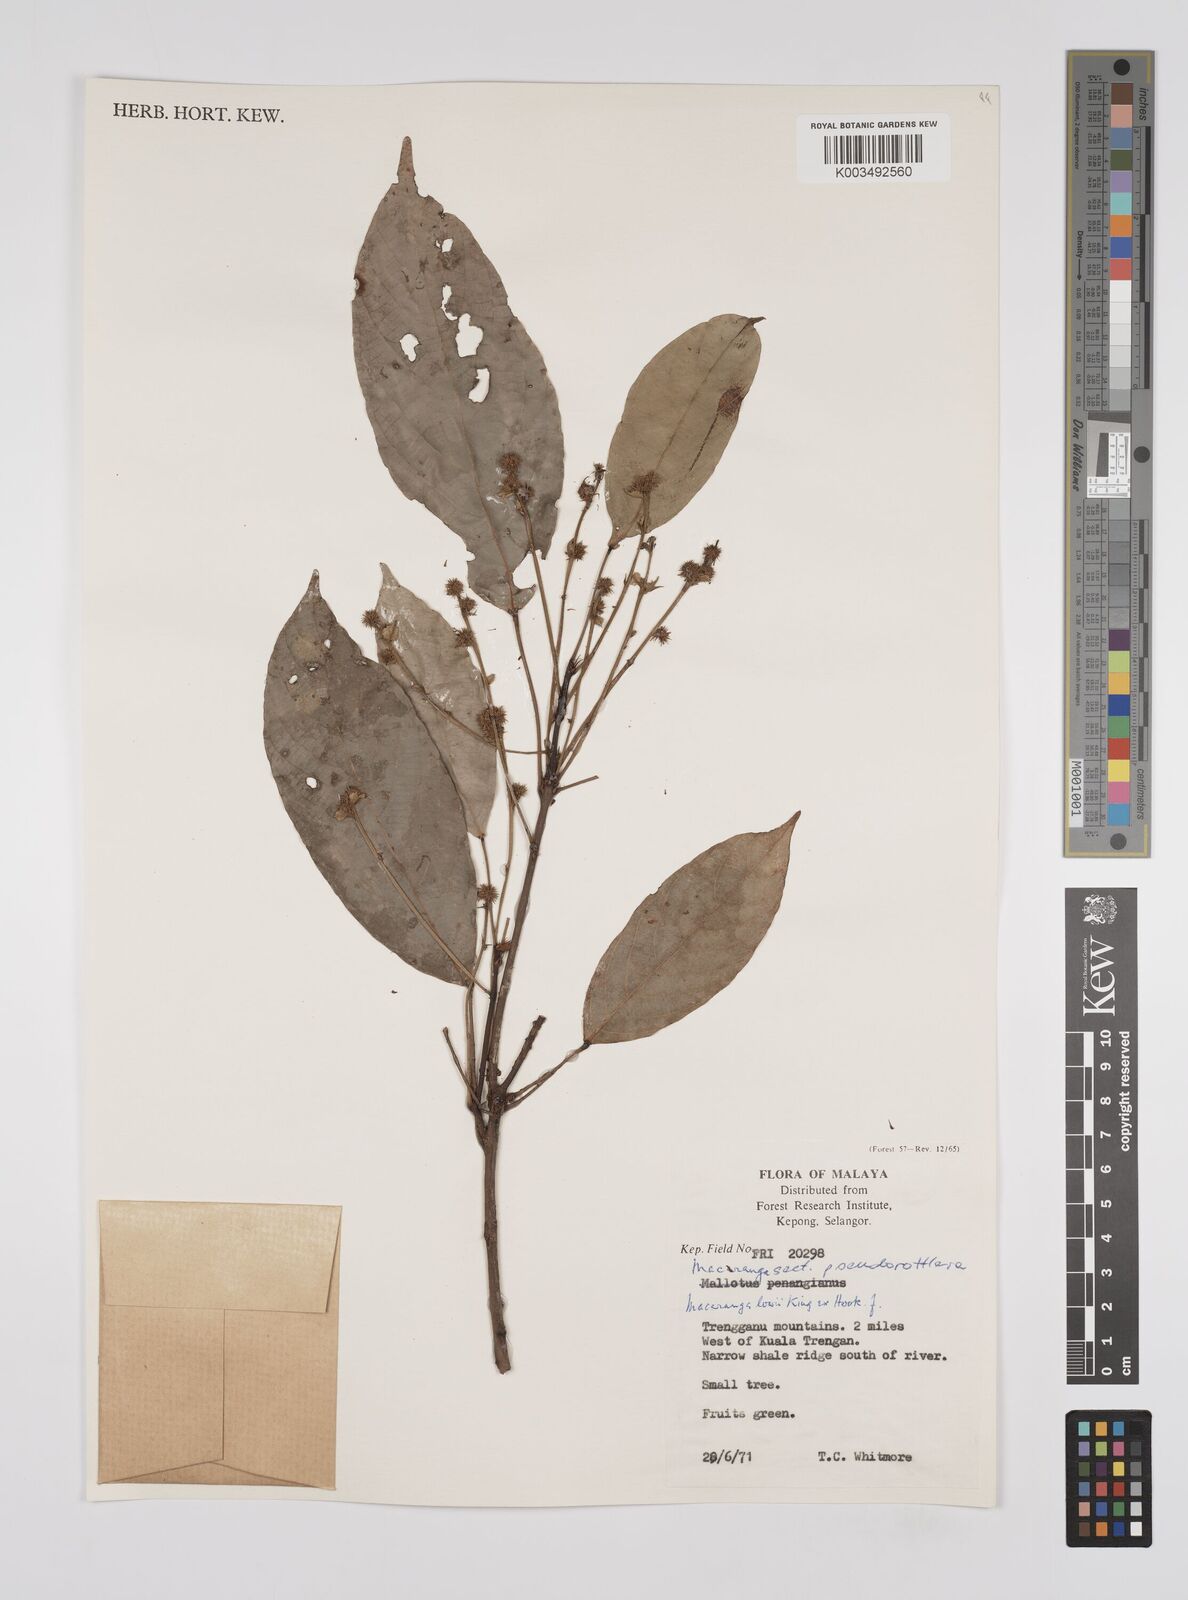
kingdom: Plantae
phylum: Tracheophyta
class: Magnoliopsida
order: Malpighiales
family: Euphorbiaceae
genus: Macaranga
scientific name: Macaranga lowii
